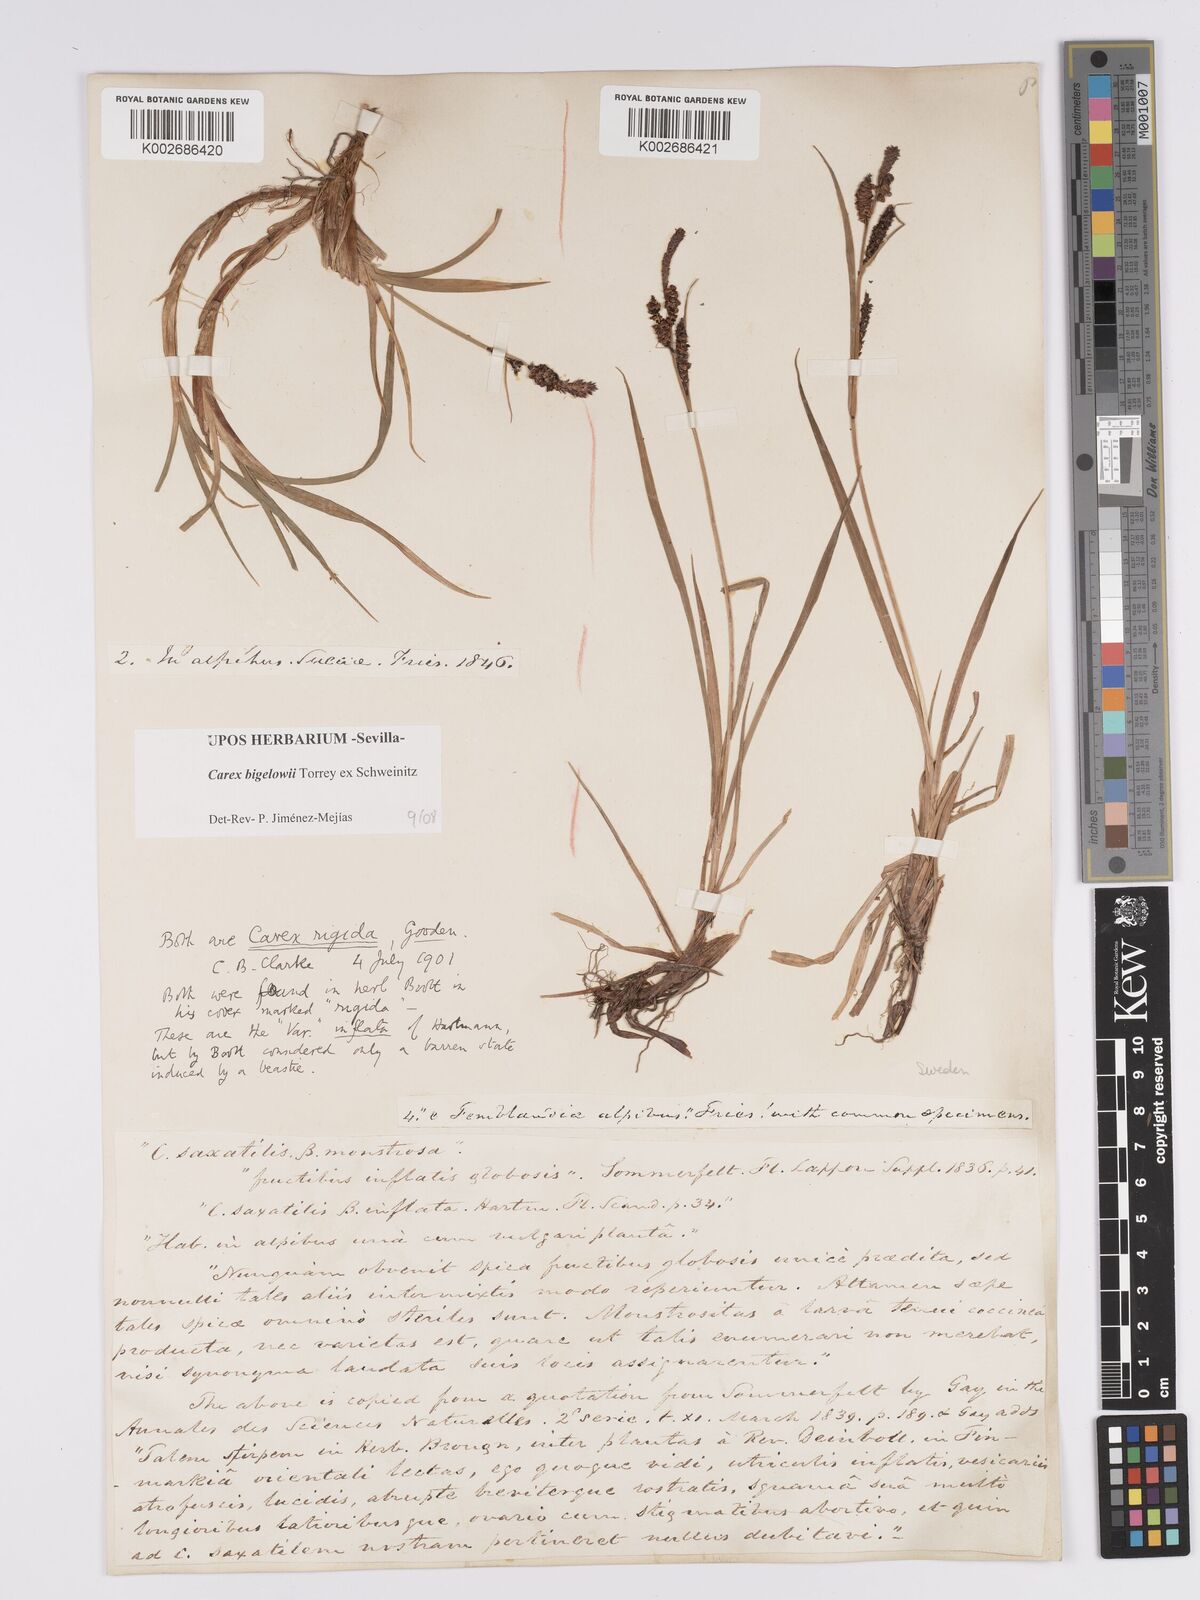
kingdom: Plantae
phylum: Tracheophyta
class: Liliopsida
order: Poales
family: Cyperaceae
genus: Carex
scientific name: Carex bigelowii
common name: Stiff sedge
